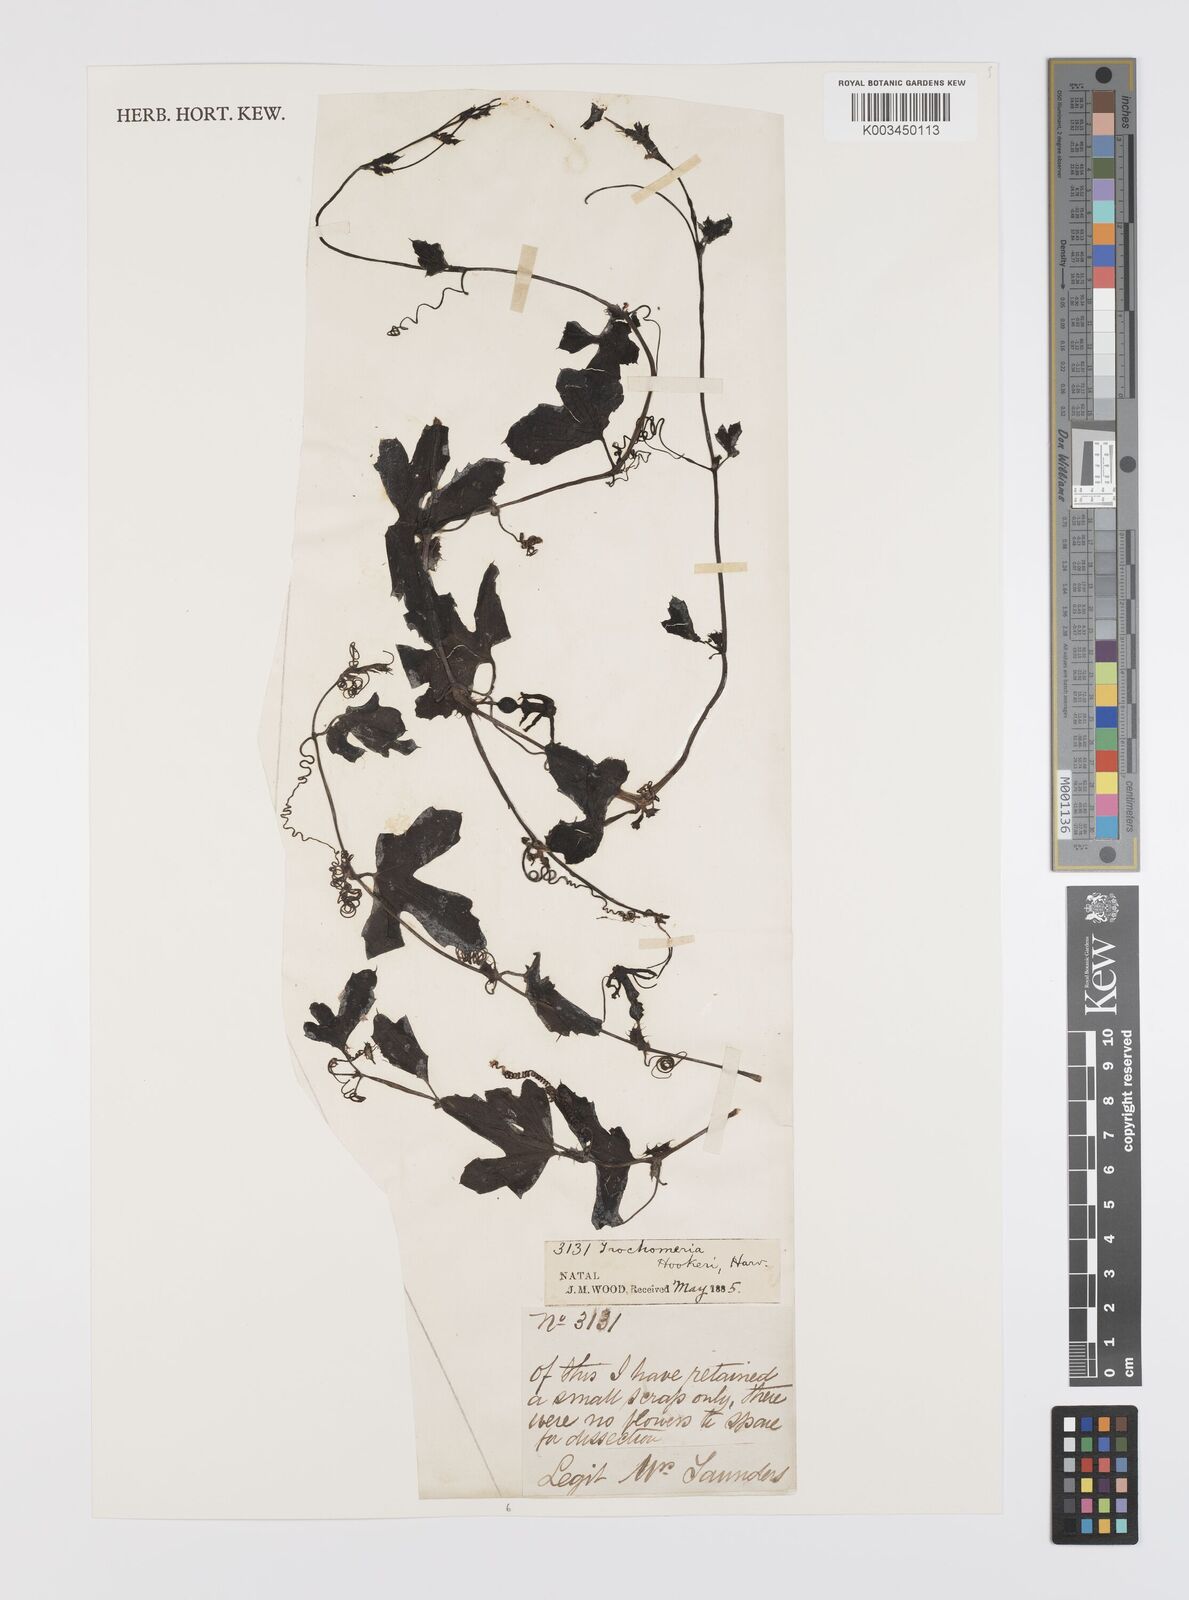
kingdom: Plantae
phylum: Tracheophyta
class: Magnoliopsida
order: Cucurbitales
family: Cucurbitaceae
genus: Trochomeria
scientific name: Trochomeria hookeri
